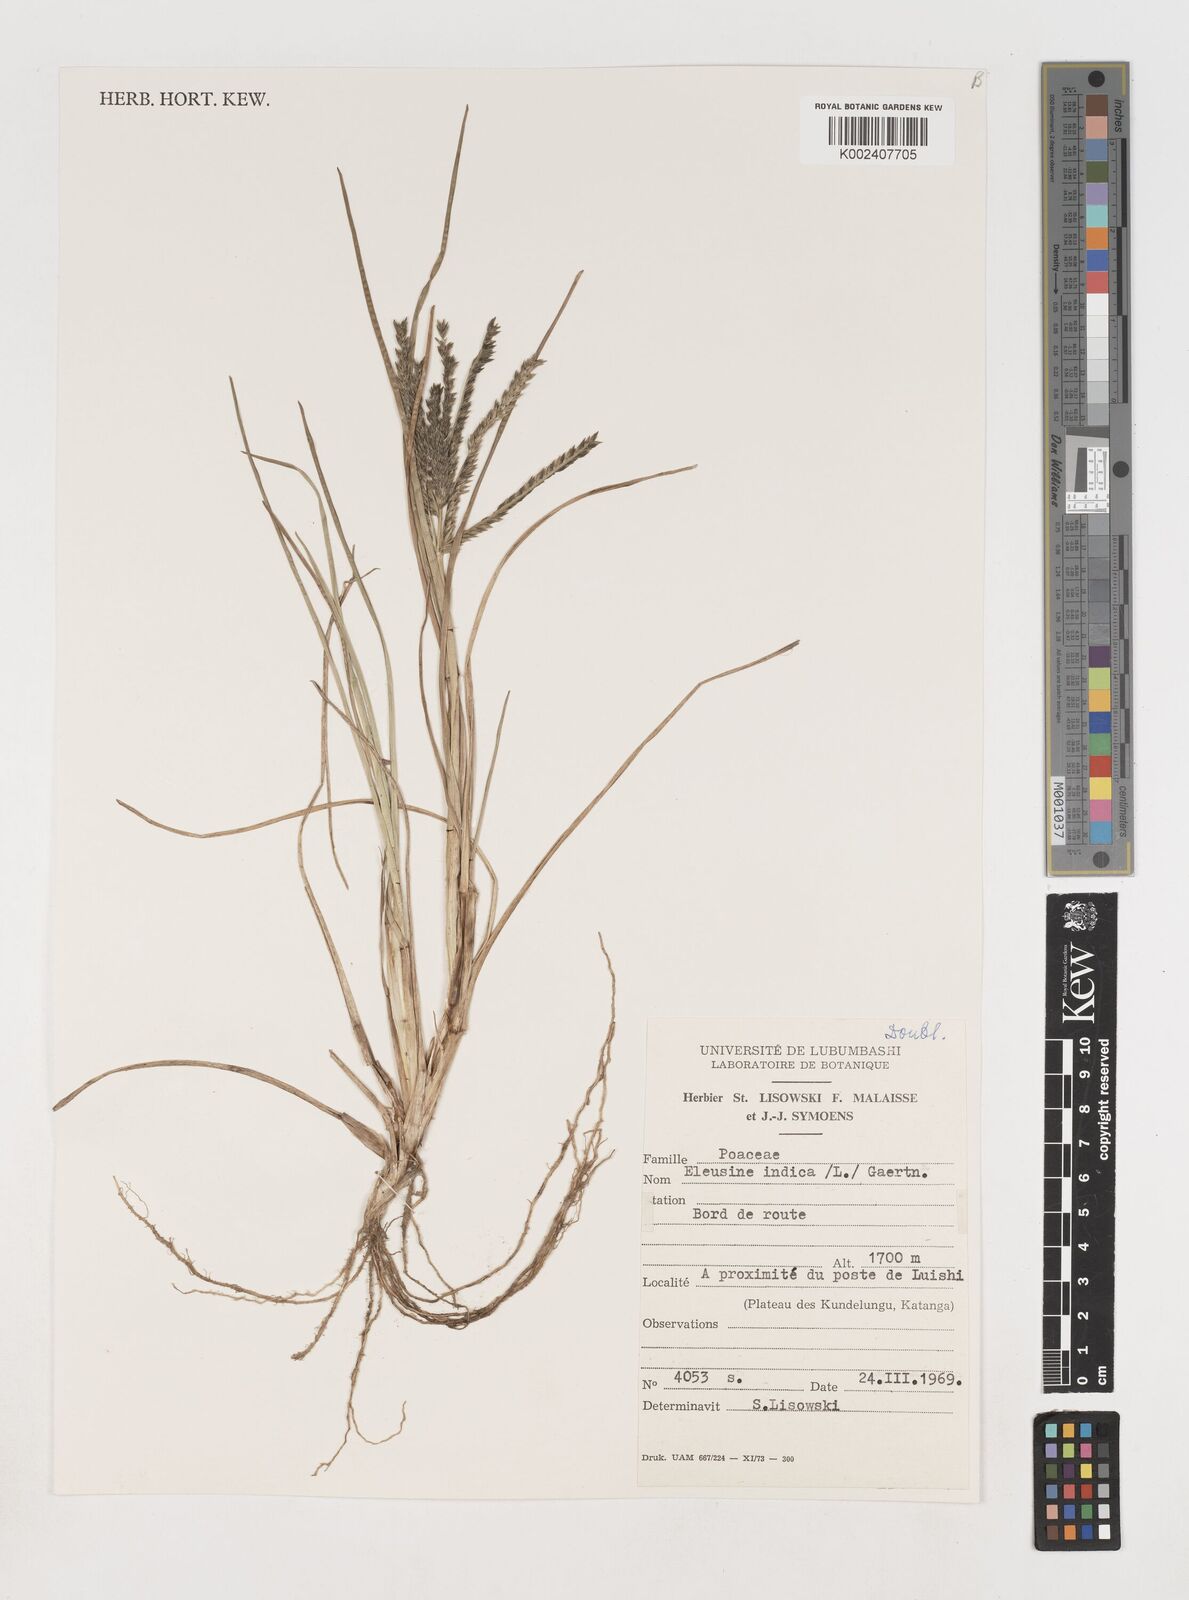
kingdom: Plantae
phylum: Tracheophyta
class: Liliopsida
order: Poales
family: Poaceae
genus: Eleusine
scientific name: Eleusine indica
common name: Yard-grass
